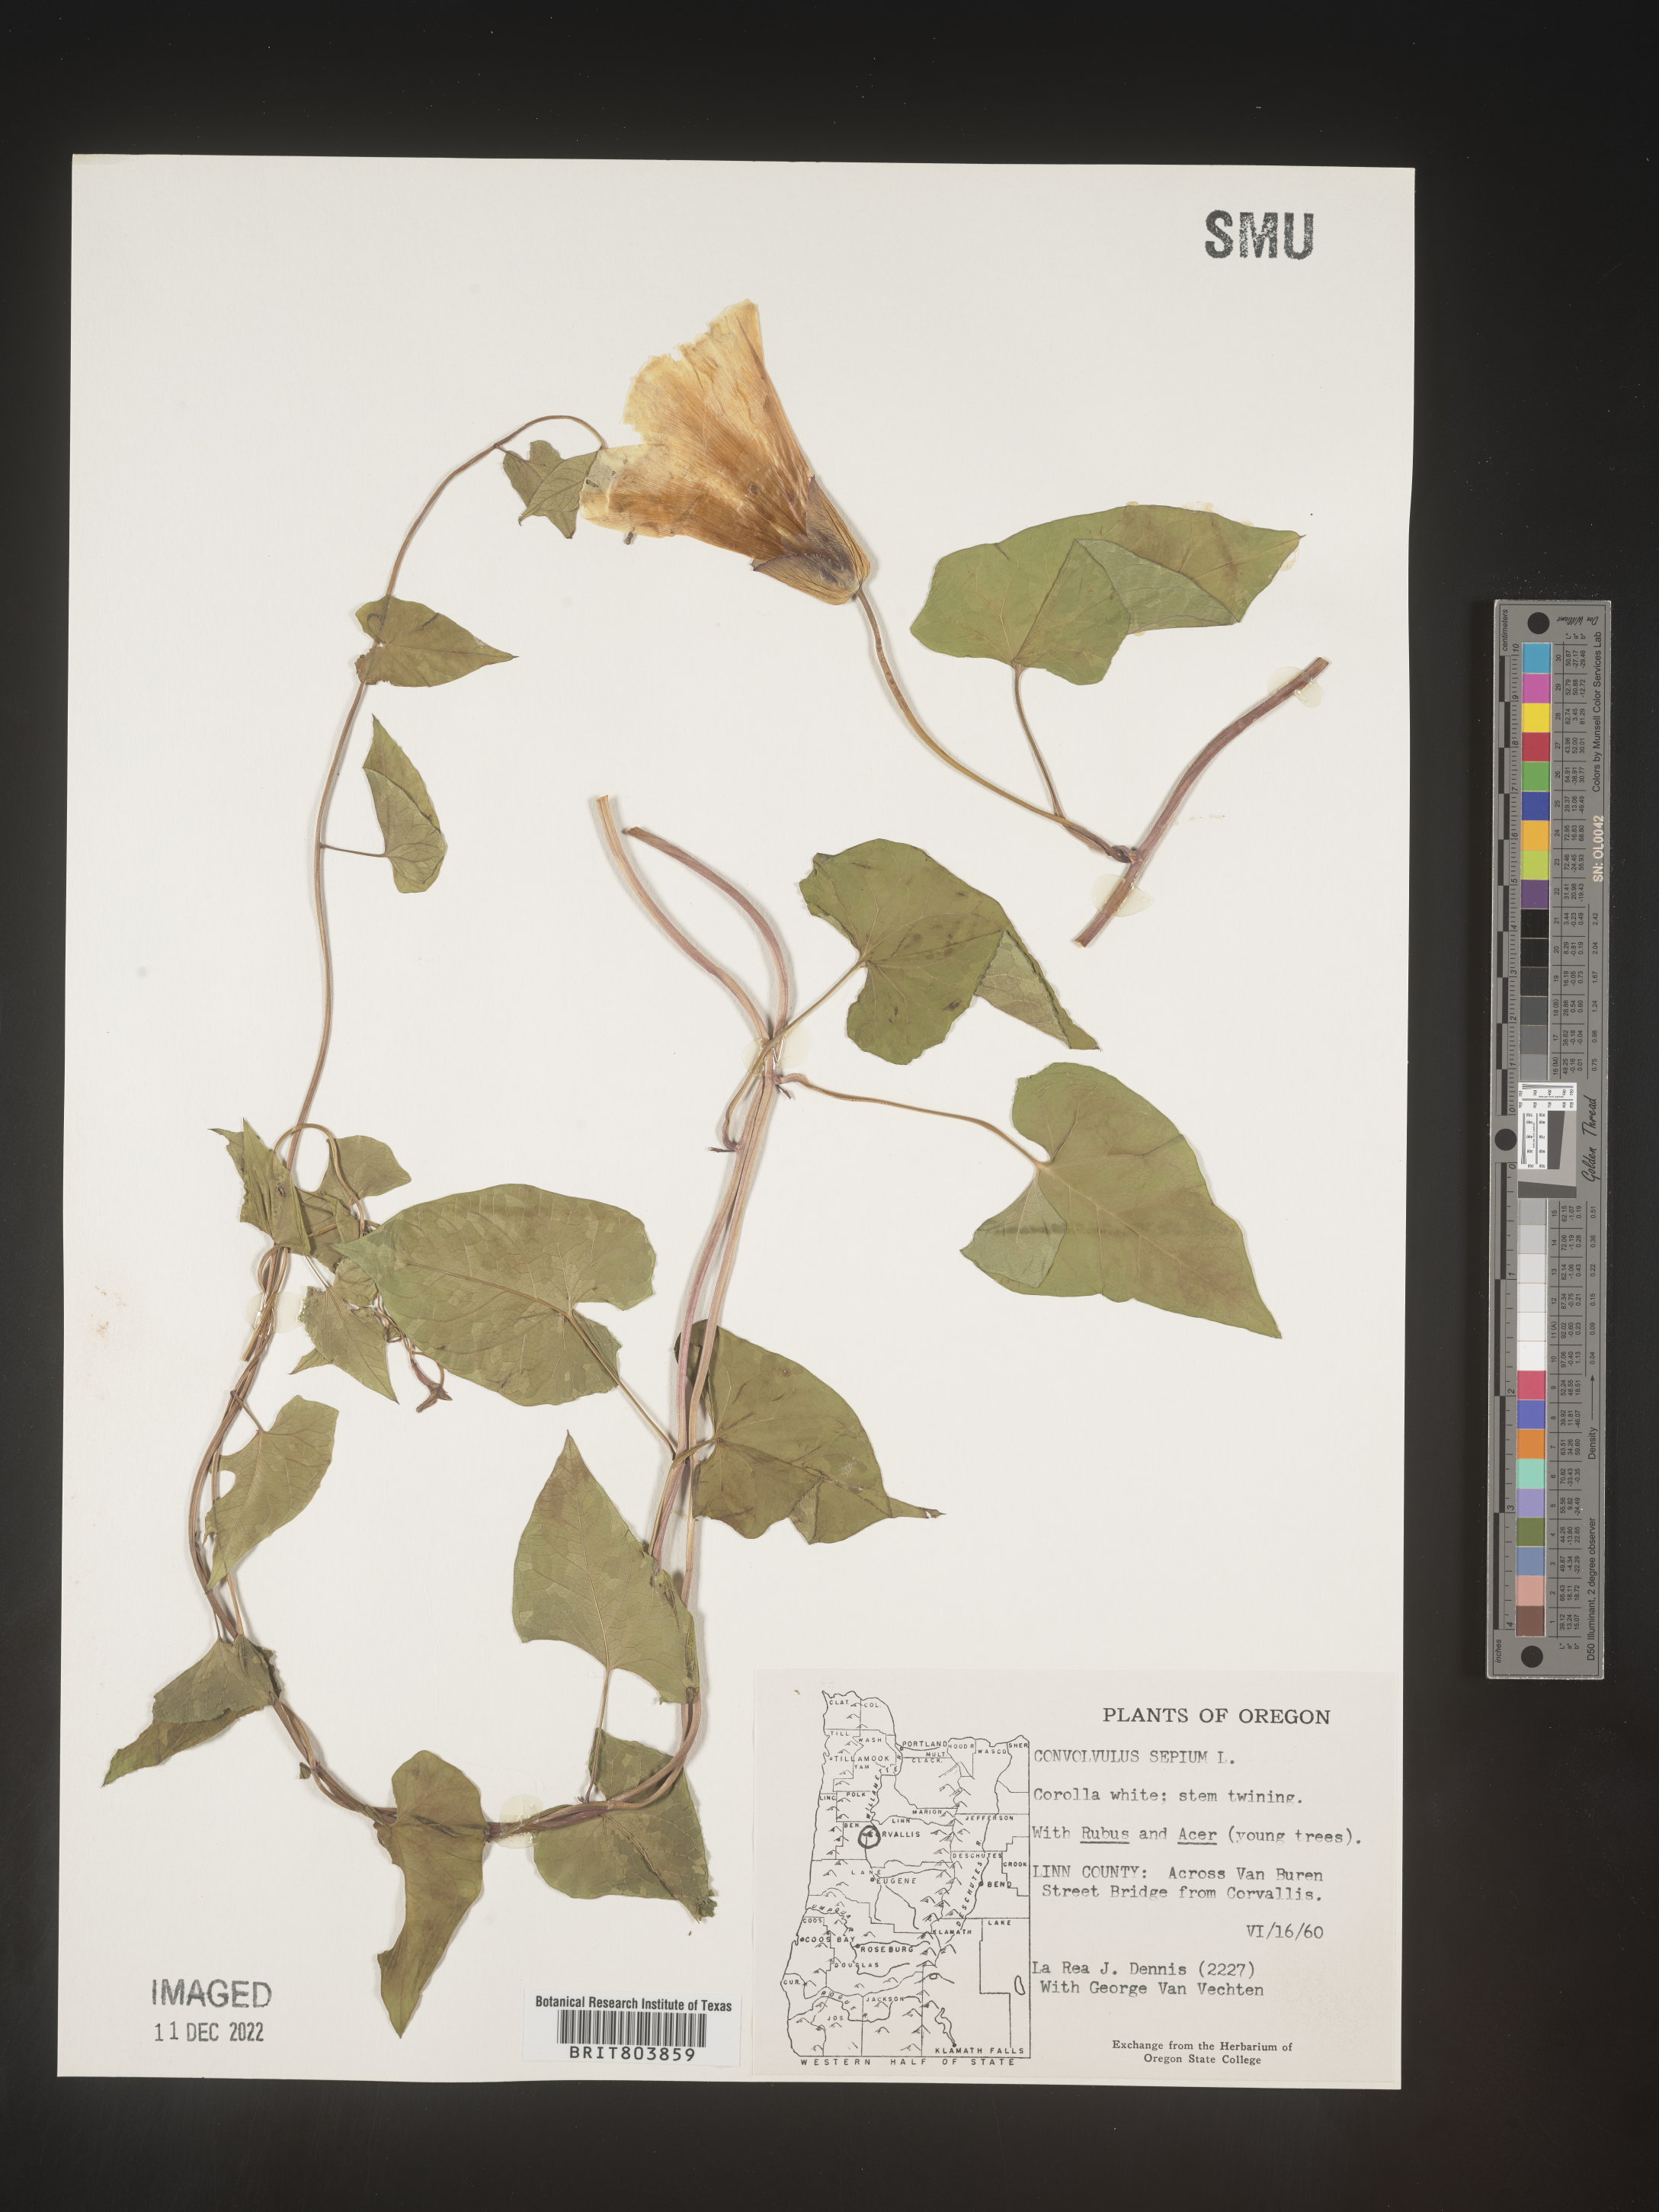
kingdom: Plantae
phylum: Tracheophyta
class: Magnoliopsida
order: Solanales
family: Convolvulaceae
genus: Calystegia
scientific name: Calystegia sepium
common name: Hedge bindweed
